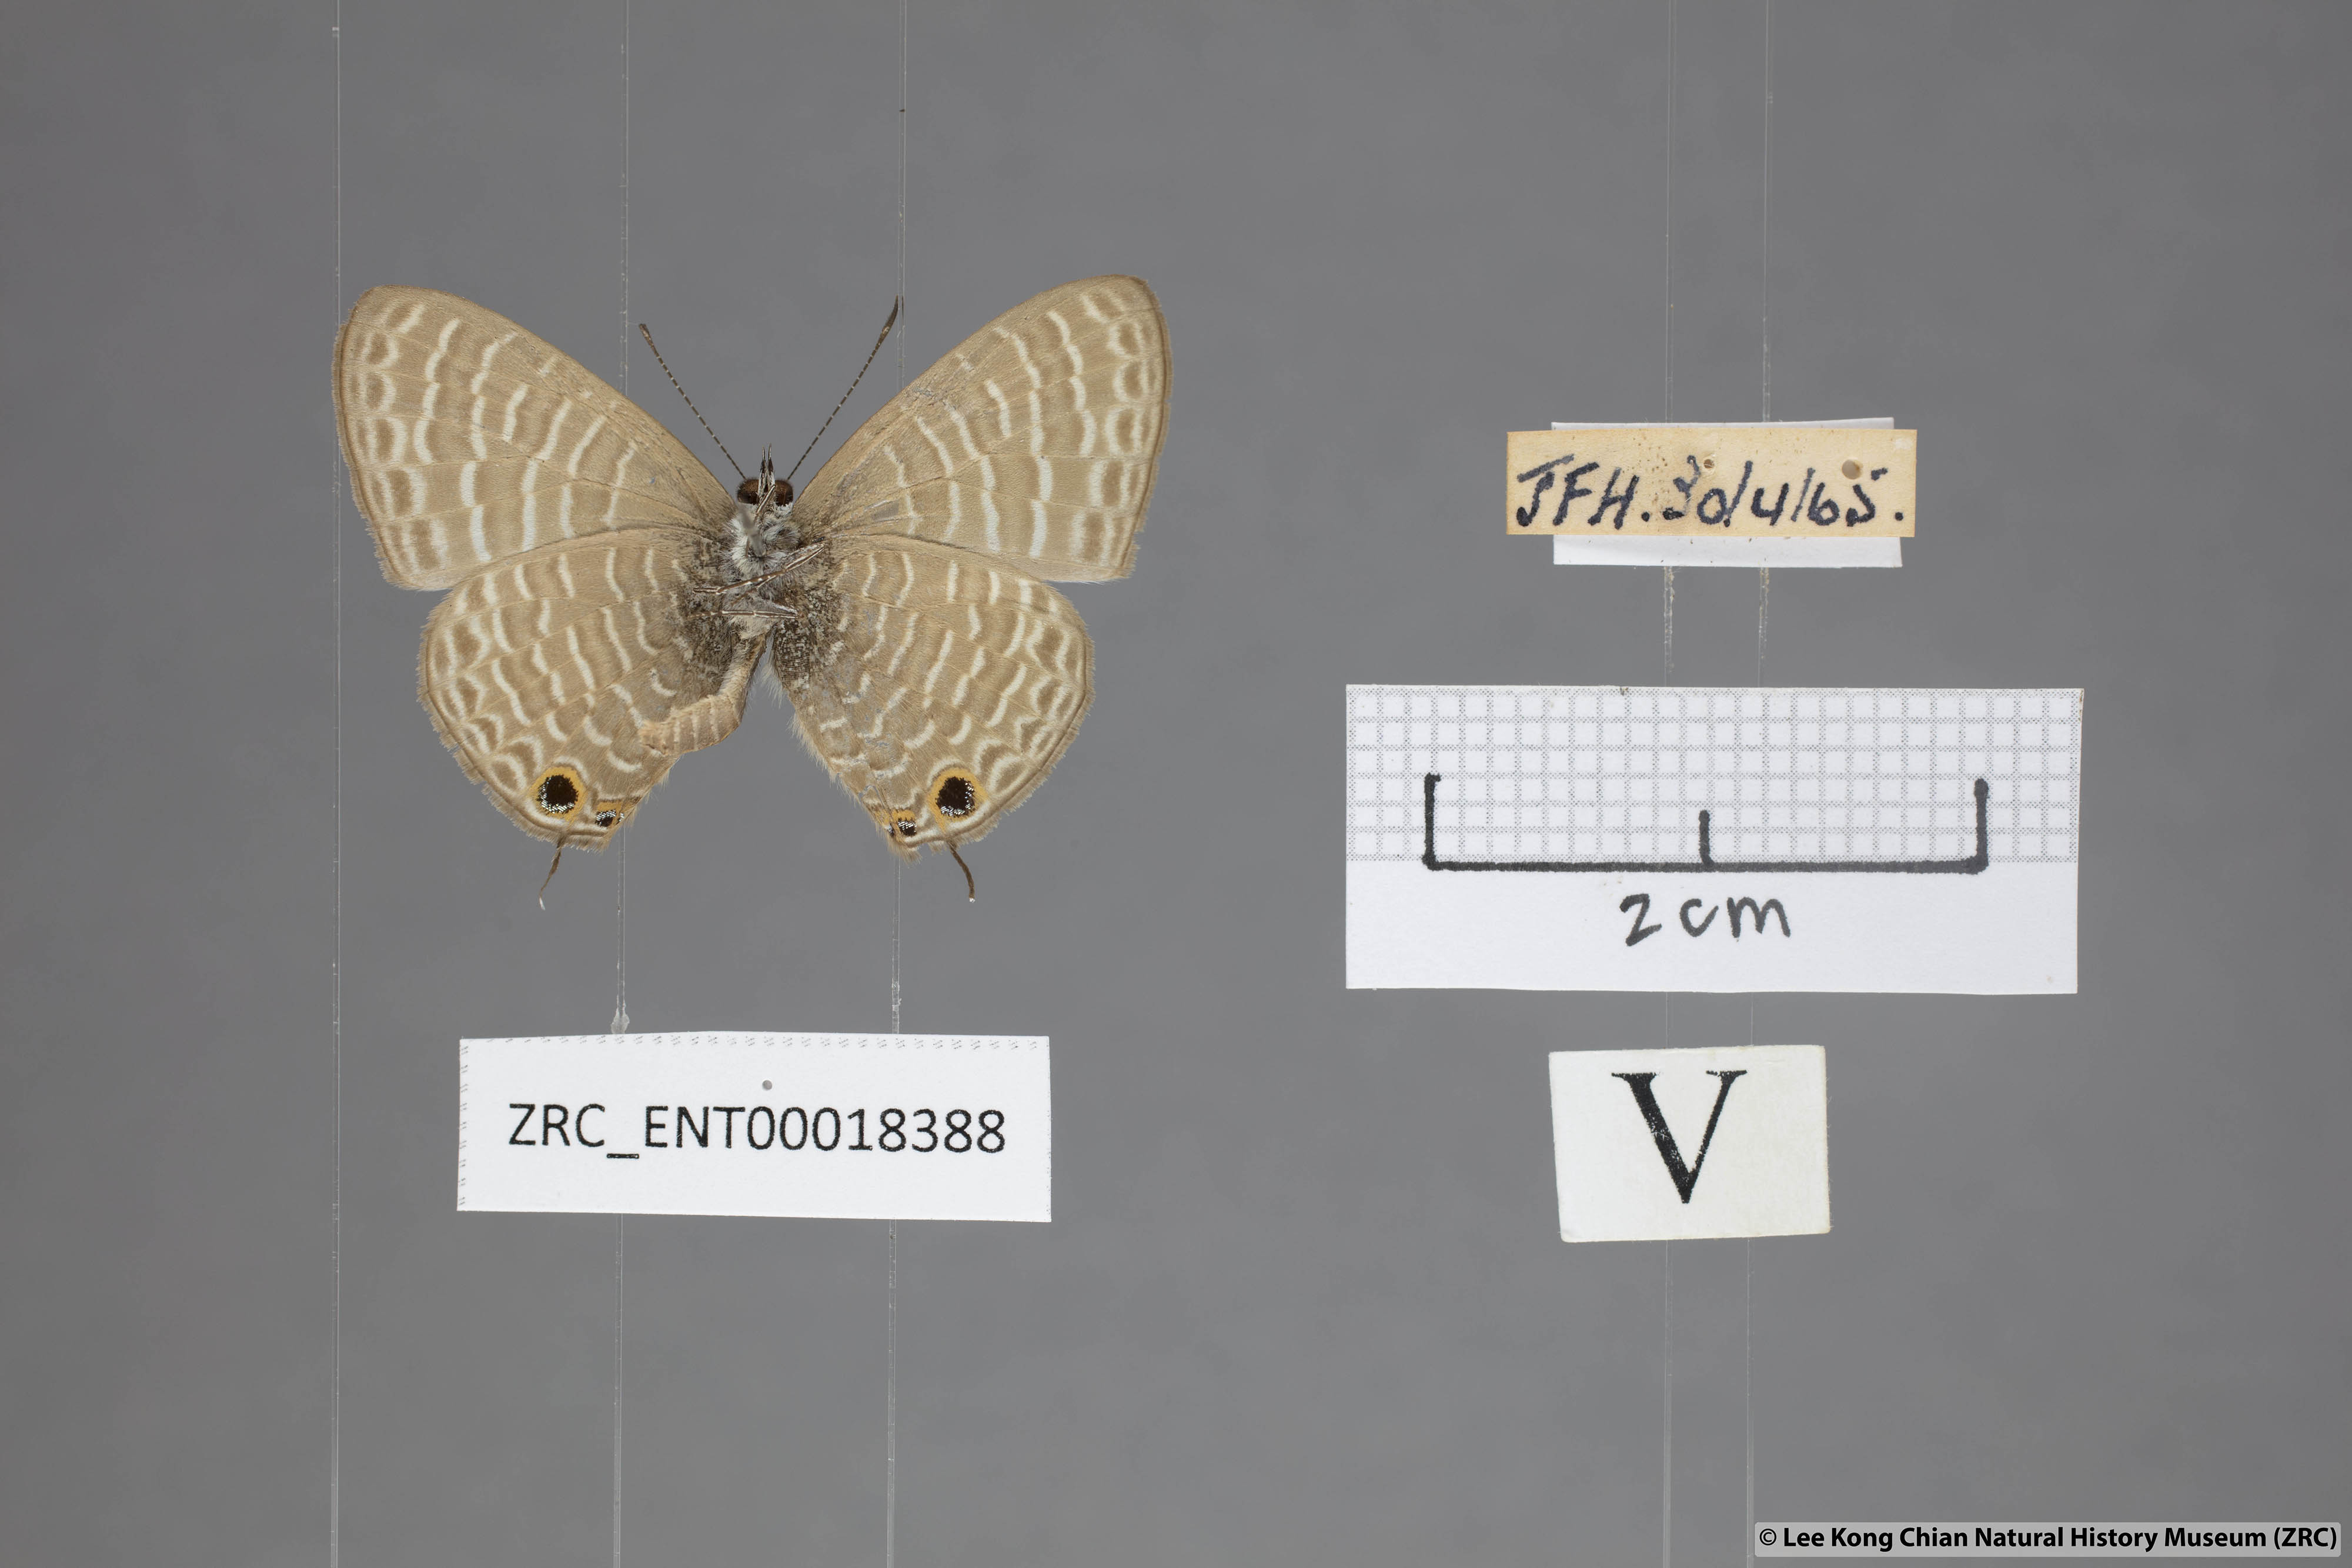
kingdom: Animalia
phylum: Arthropoda
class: Insecta
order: Lepidoptera
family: Lycaenidae
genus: Nacaduba
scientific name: Nacaduba kurava
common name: Transparent 6-line blue
